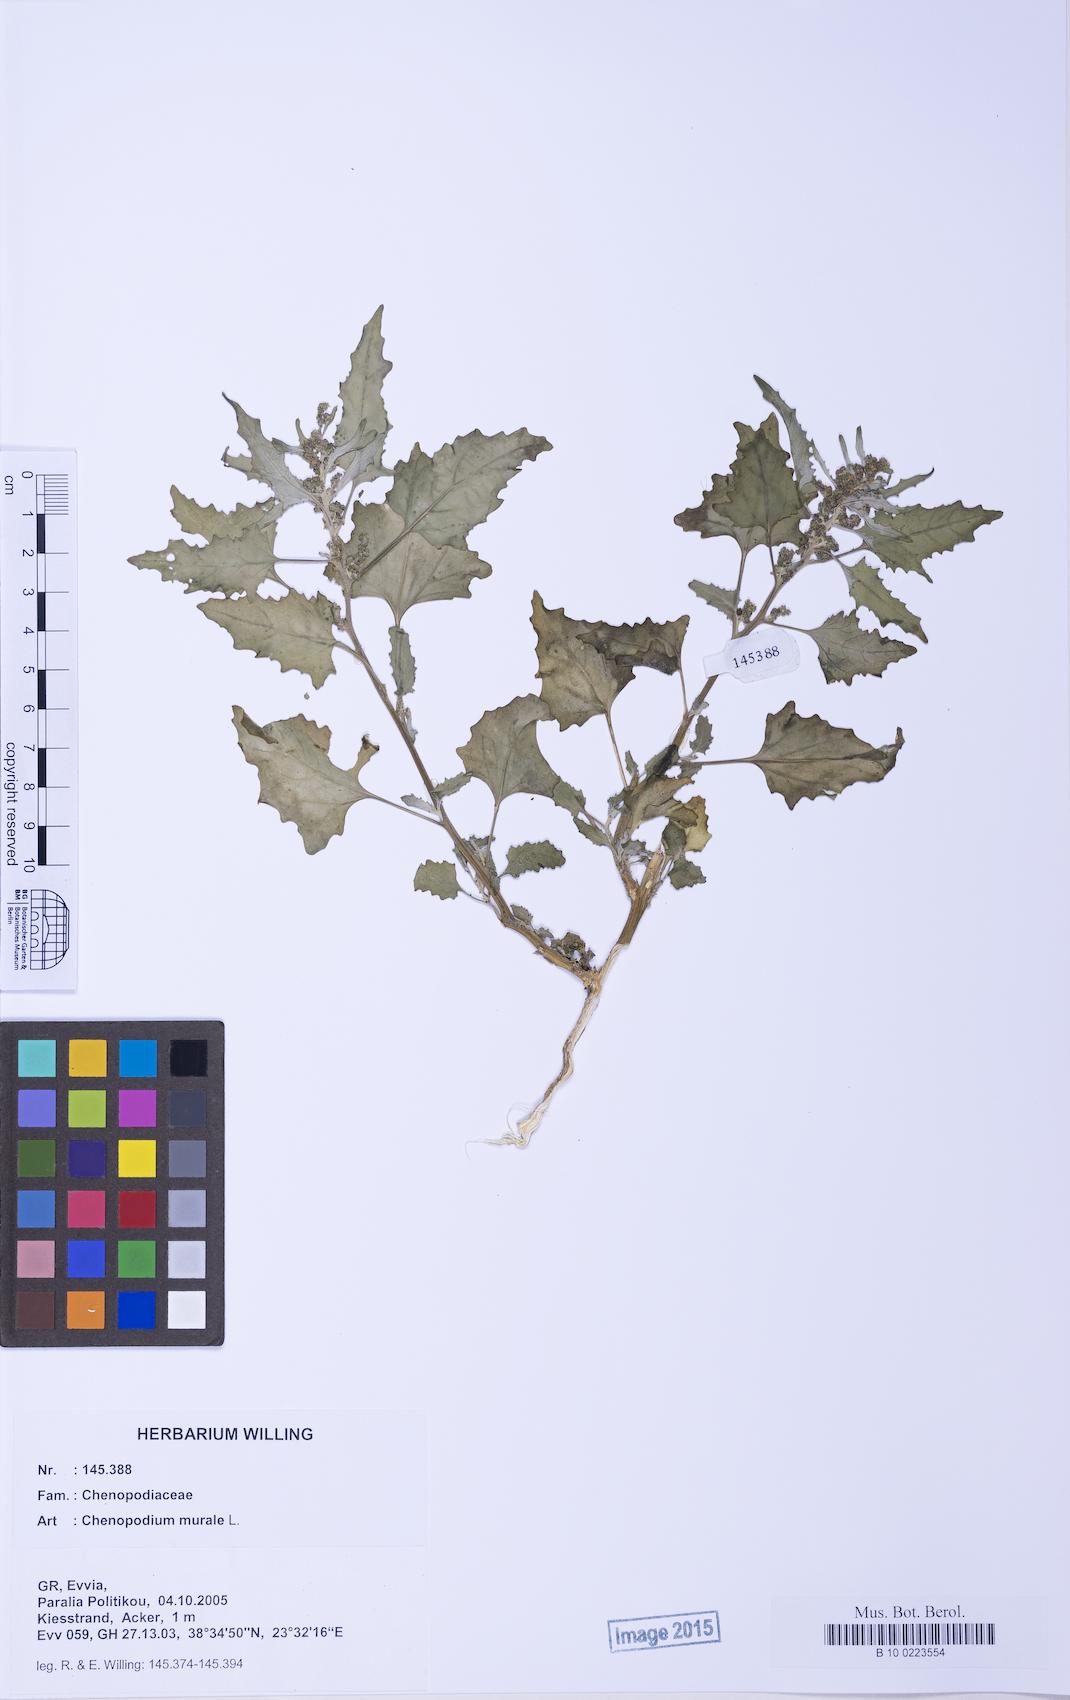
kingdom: Plantae
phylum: Tracheophyta
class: Magnoliopsida
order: Caryophyllales
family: Amaranthaceae
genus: Chenopodiastrum
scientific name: Chenopodiastrum murale
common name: Sowbane
